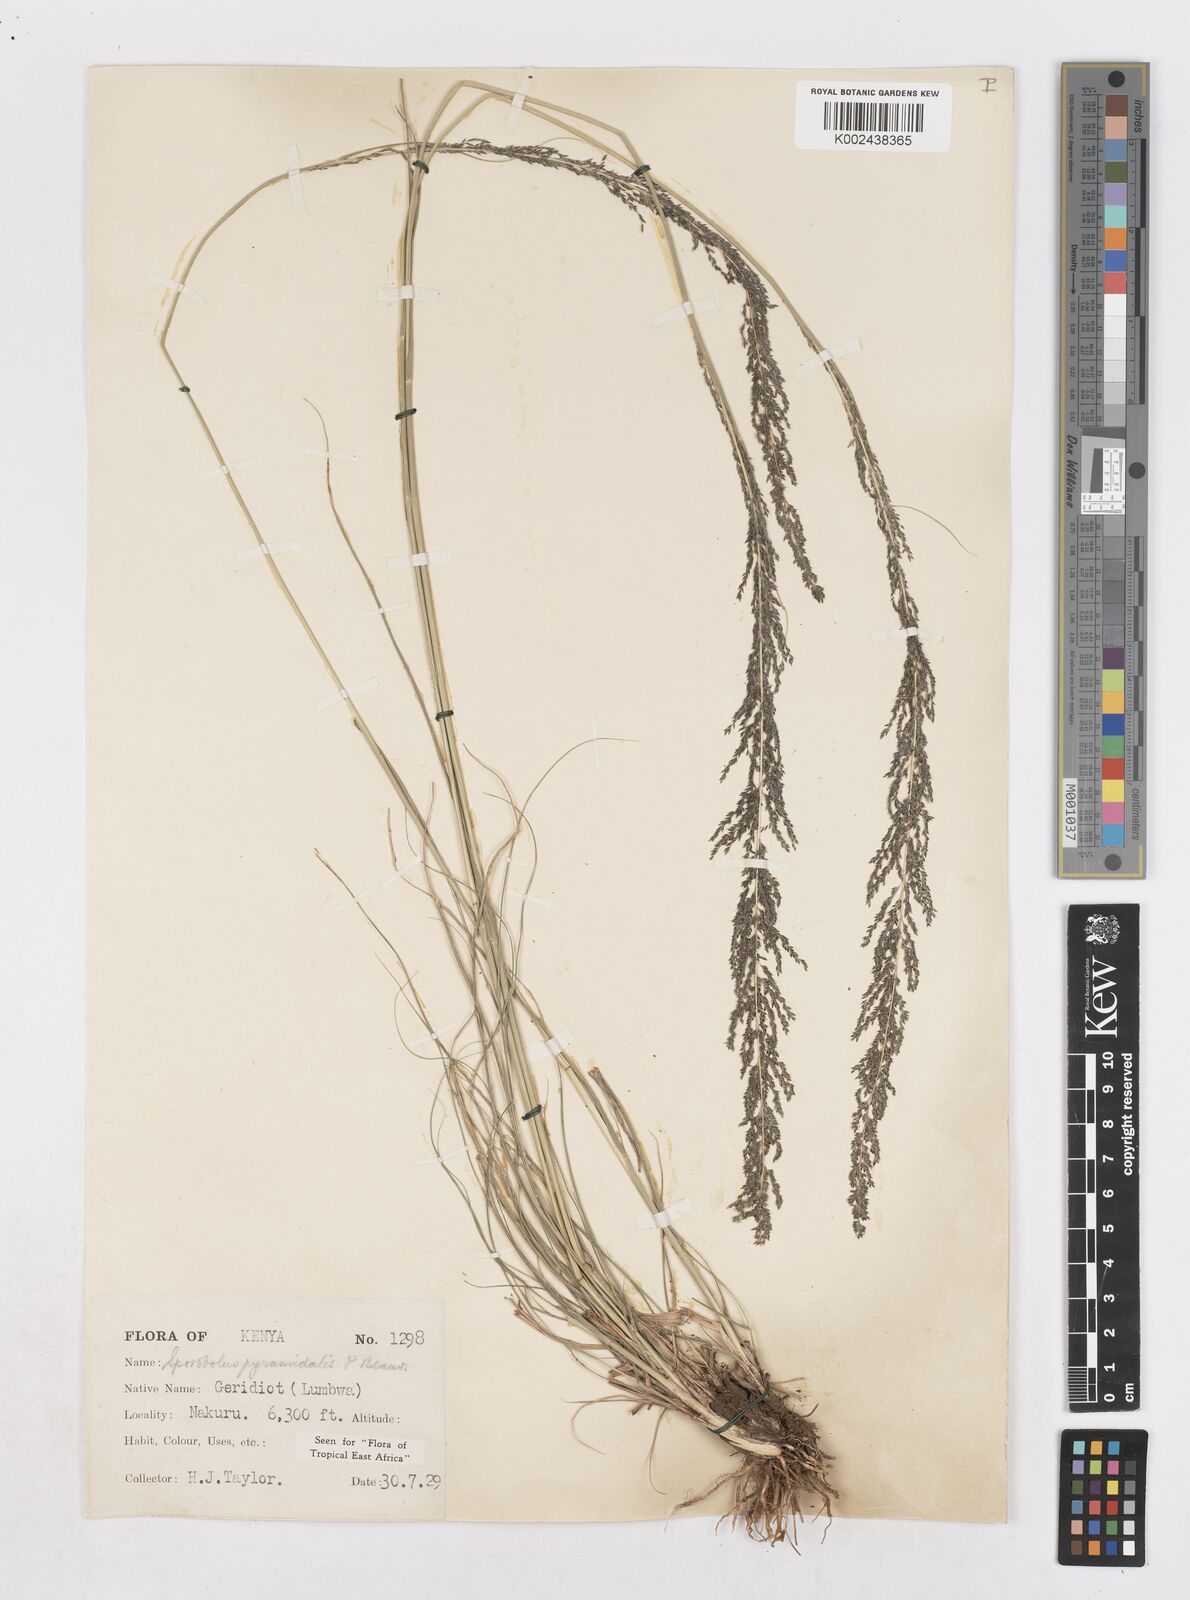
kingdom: Plantae
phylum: Tracheophyta
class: Liliopsida
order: Poales
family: Poaceae
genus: Sporobolus
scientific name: Sporobolus pyramidalis
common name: West indian dropseed
